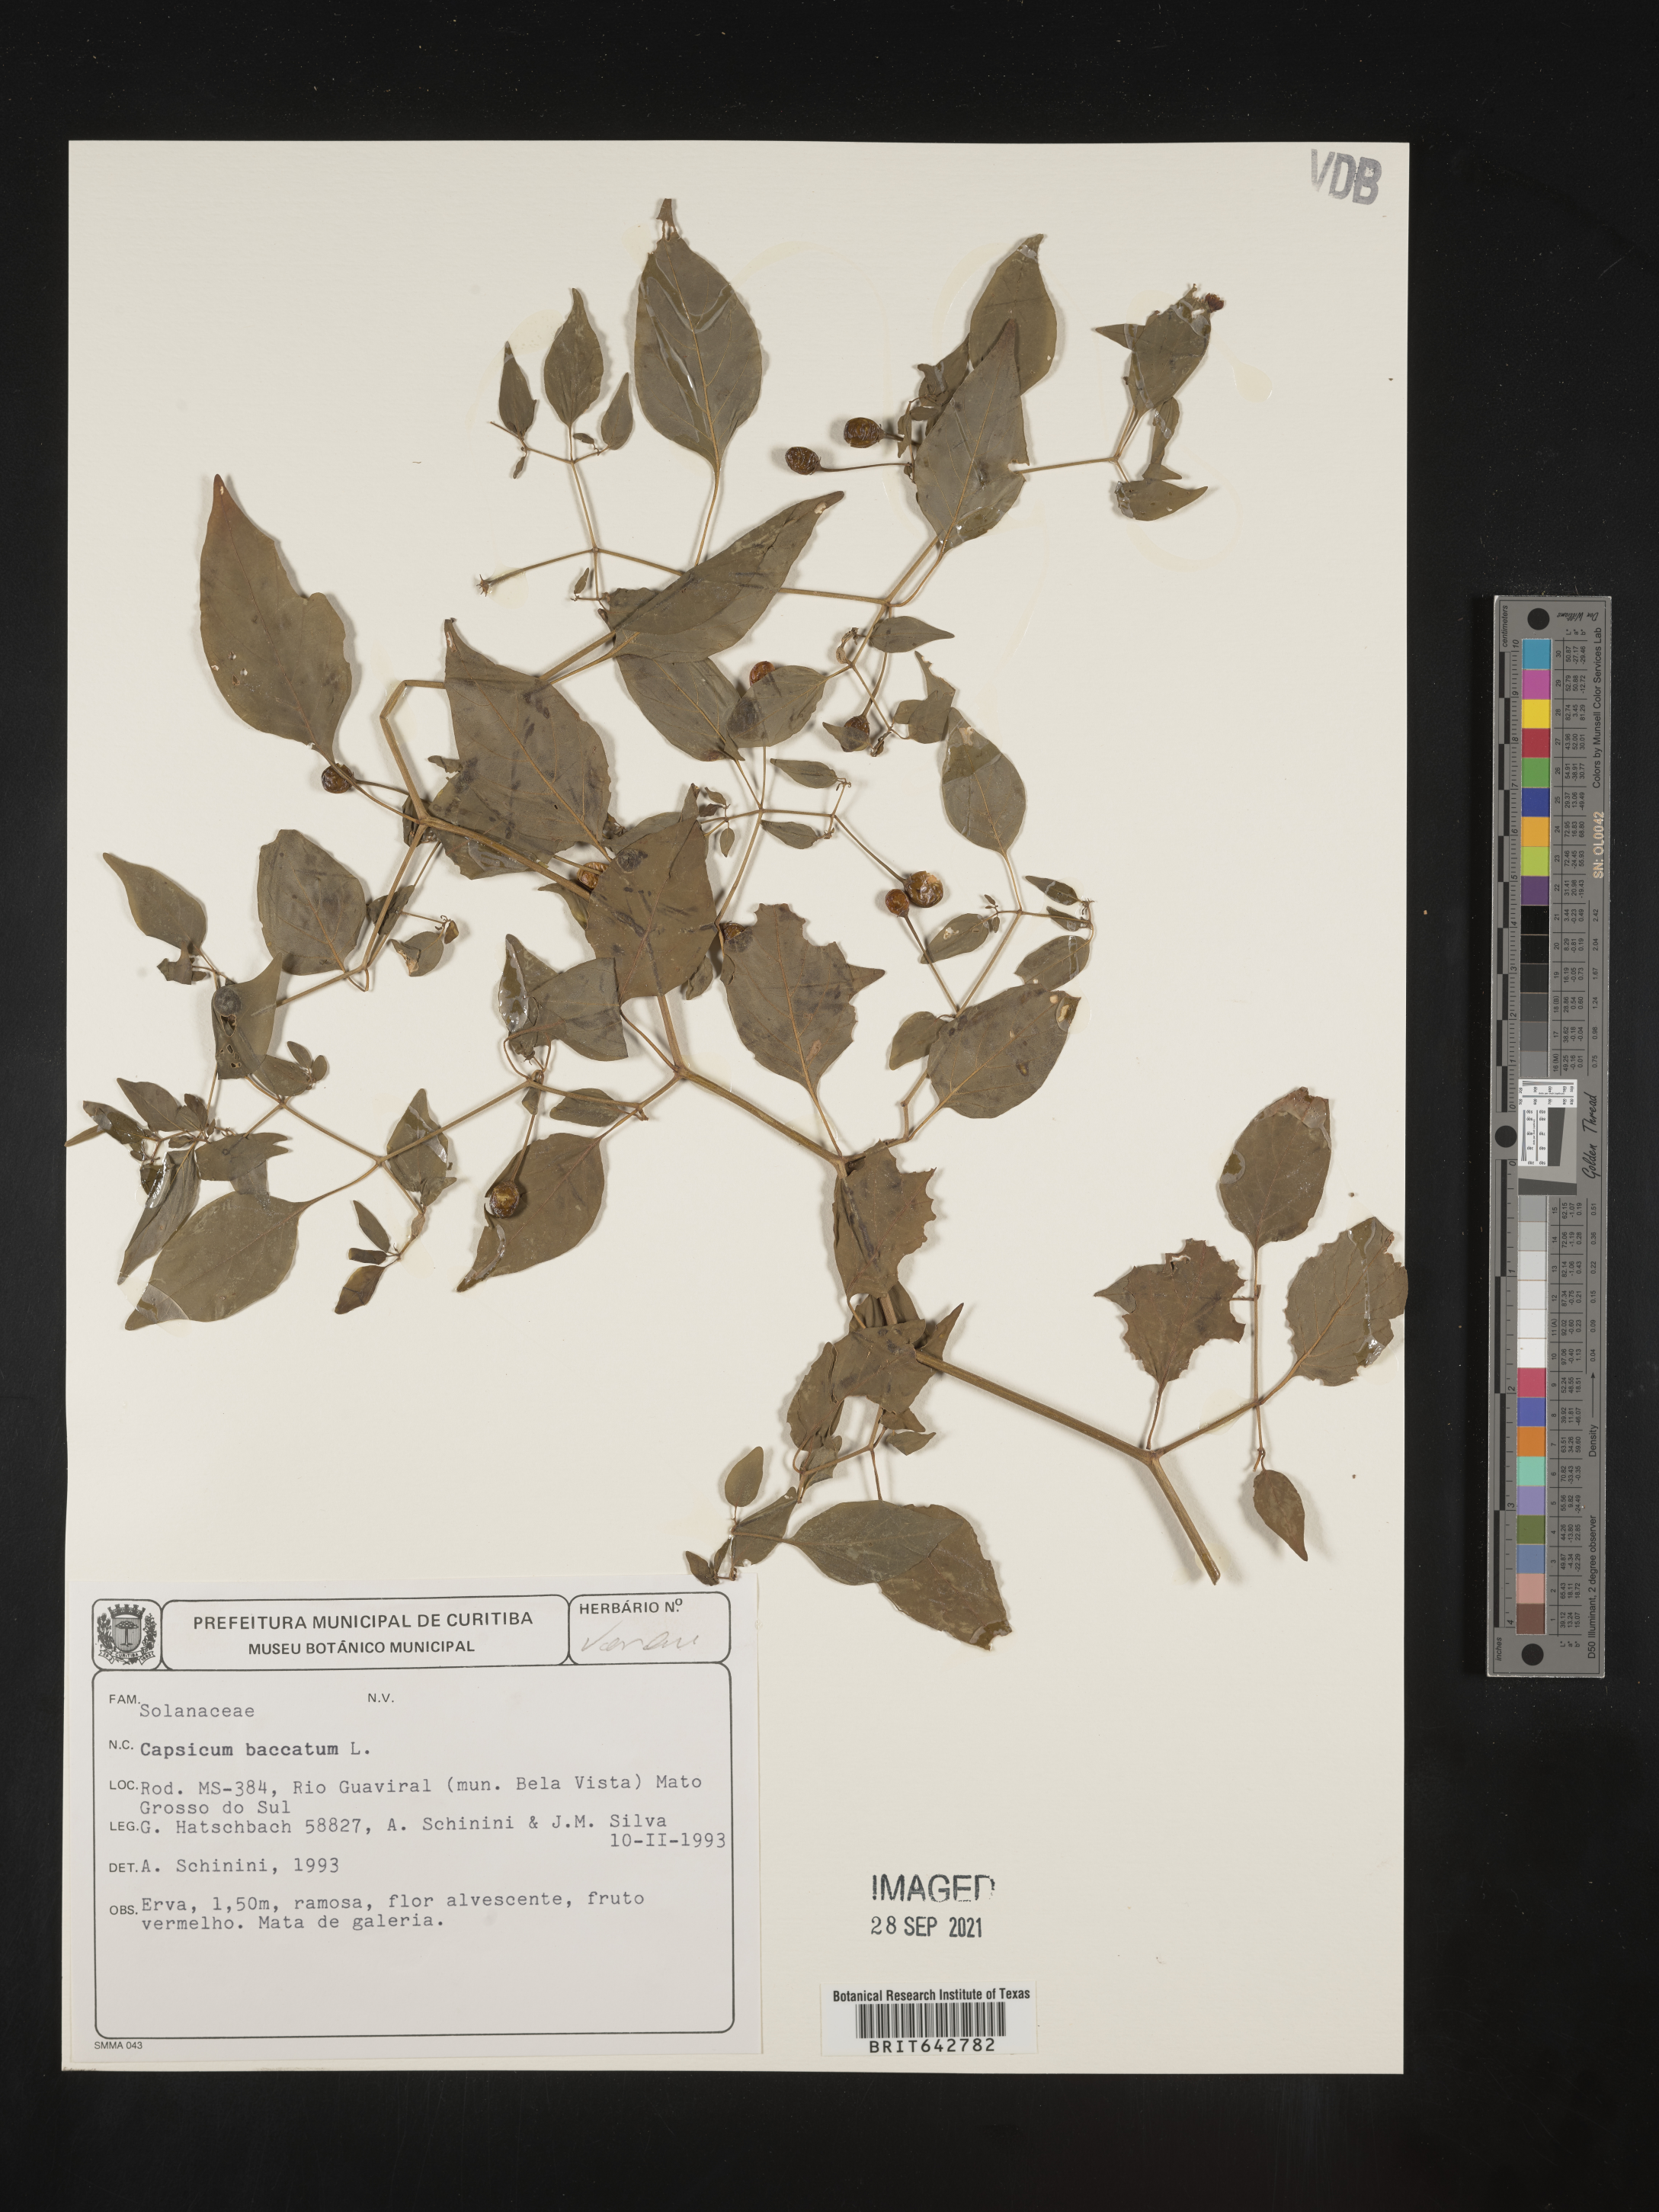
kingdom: Plantae
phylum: Tracheophyta
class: Magnoliopsida
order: Solanales
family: Solanaceae
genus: Capsicum
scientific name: Capsicum
